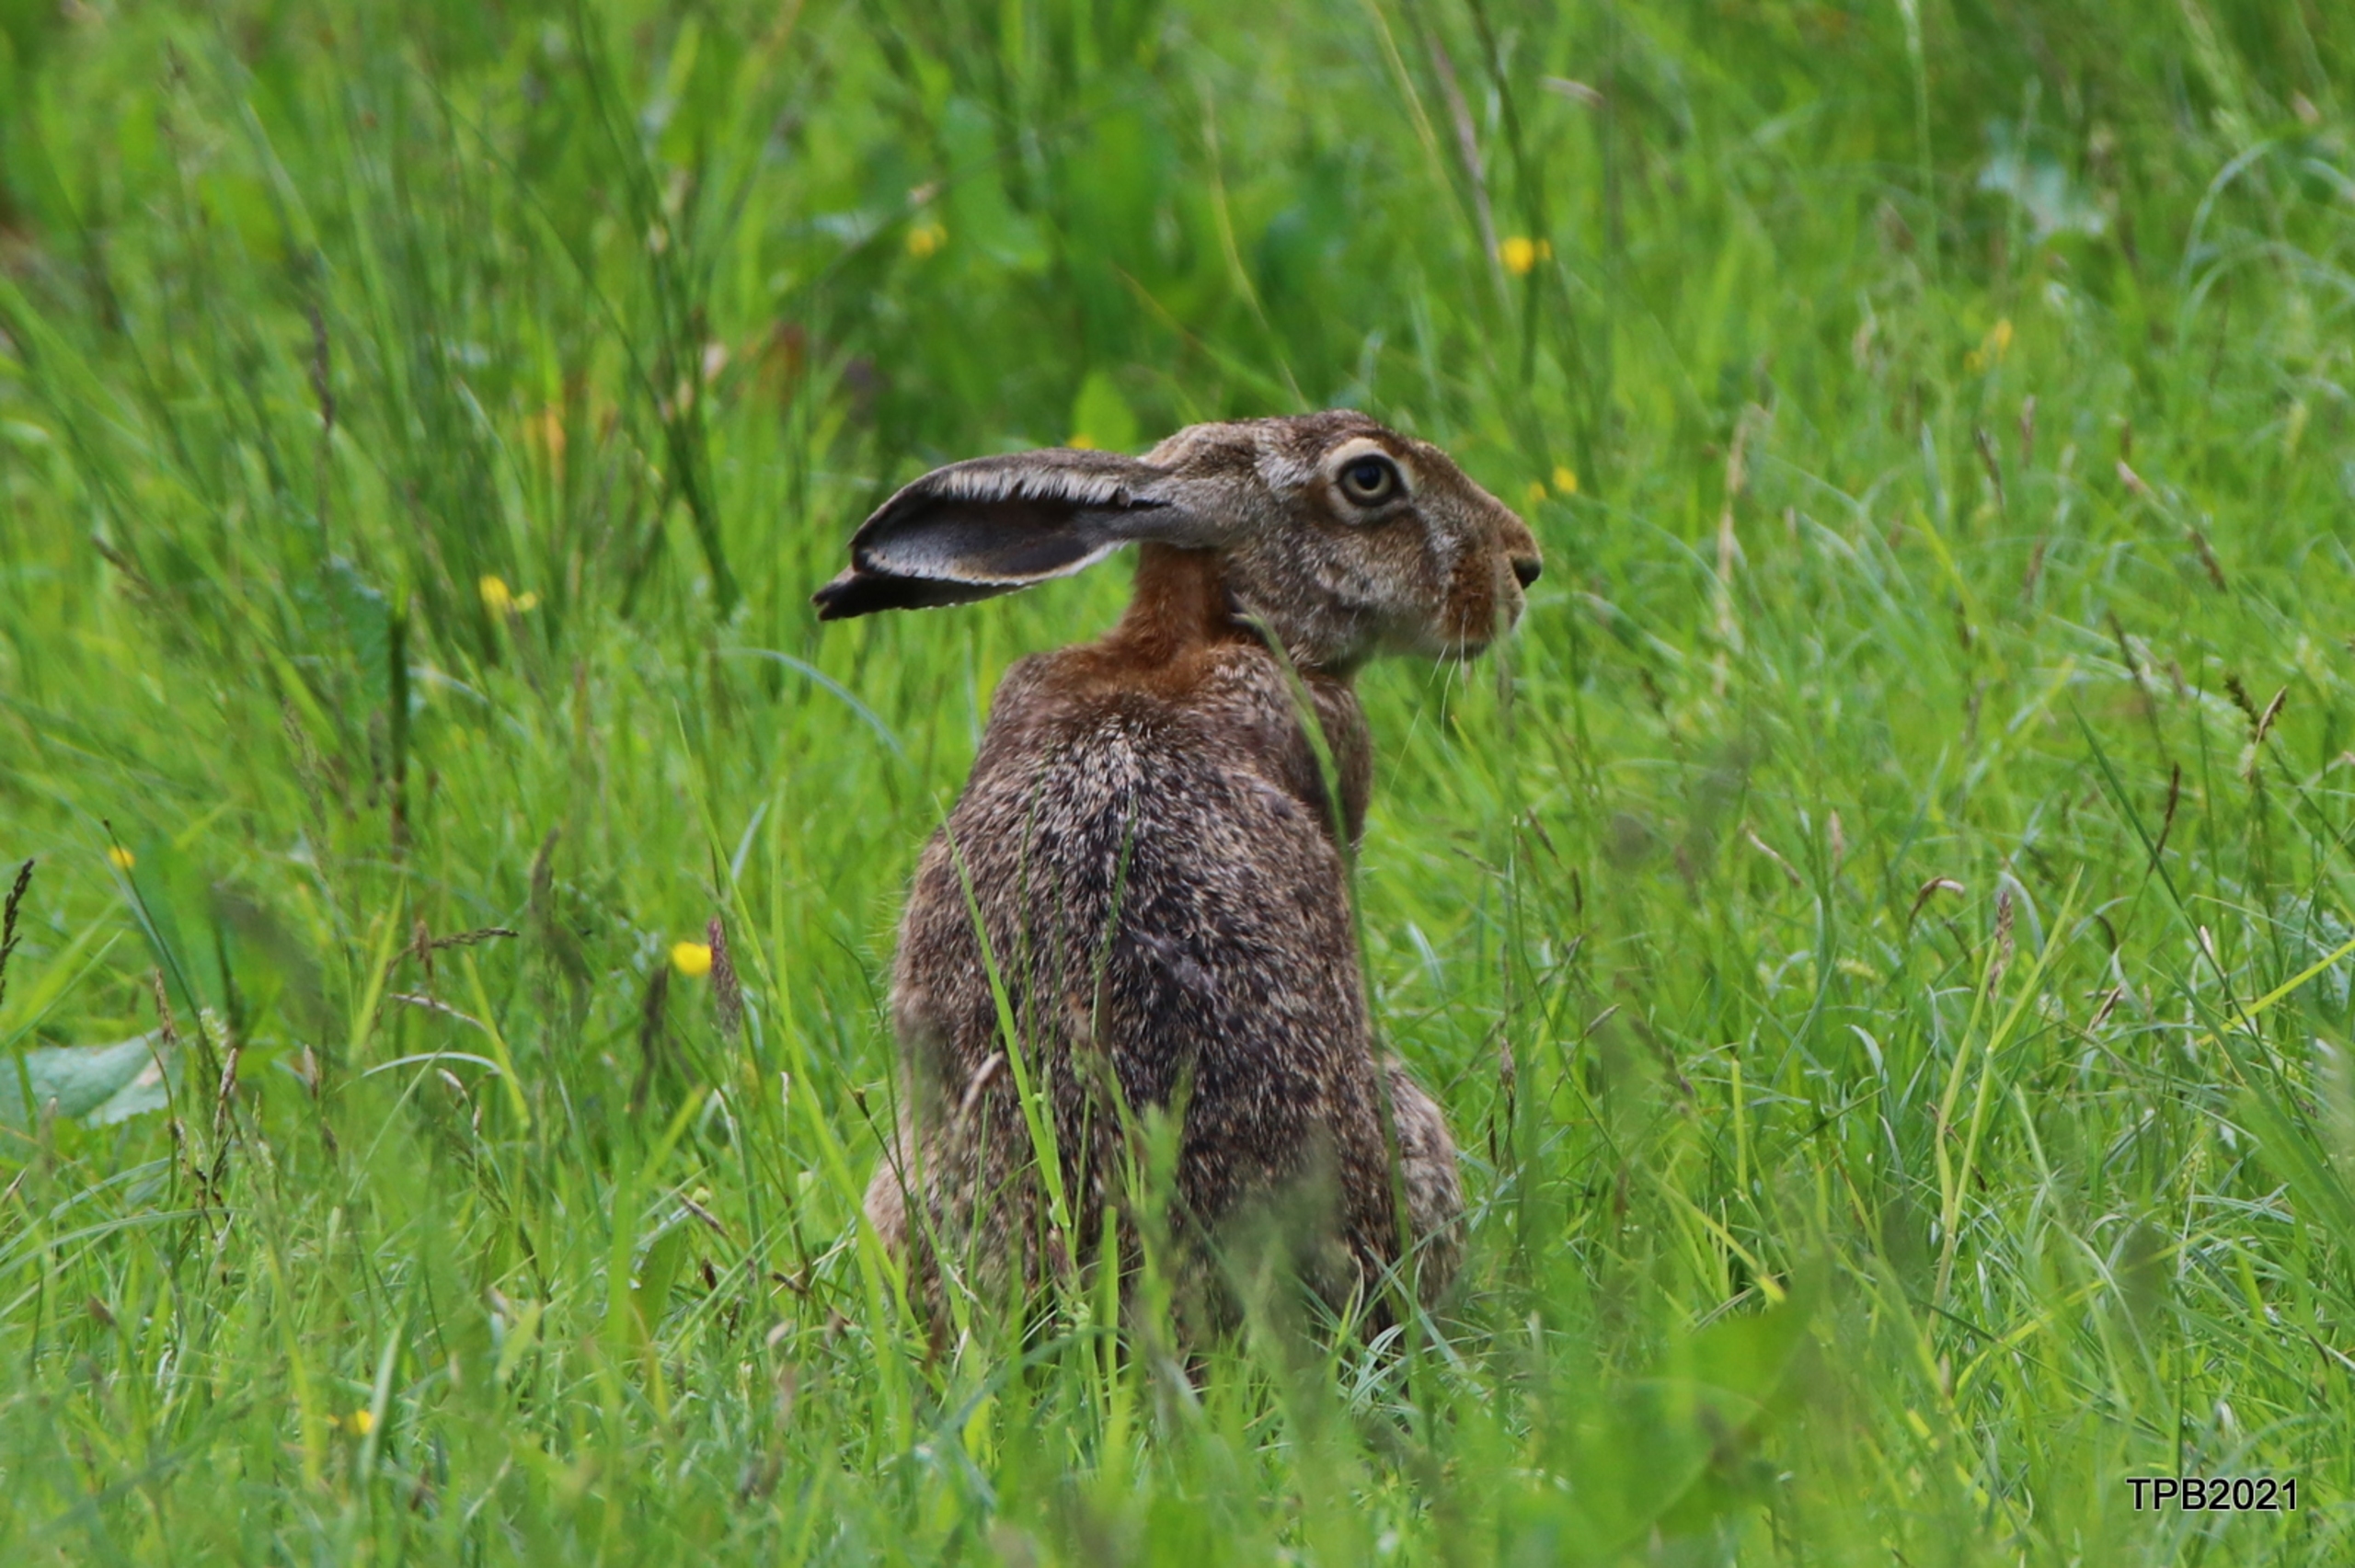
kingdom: Animalia
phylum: Chordata
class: Mammalia
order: Lagomorpha
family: Leporidae
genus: Lepus
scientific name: Lepus europaeus
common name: Hare
